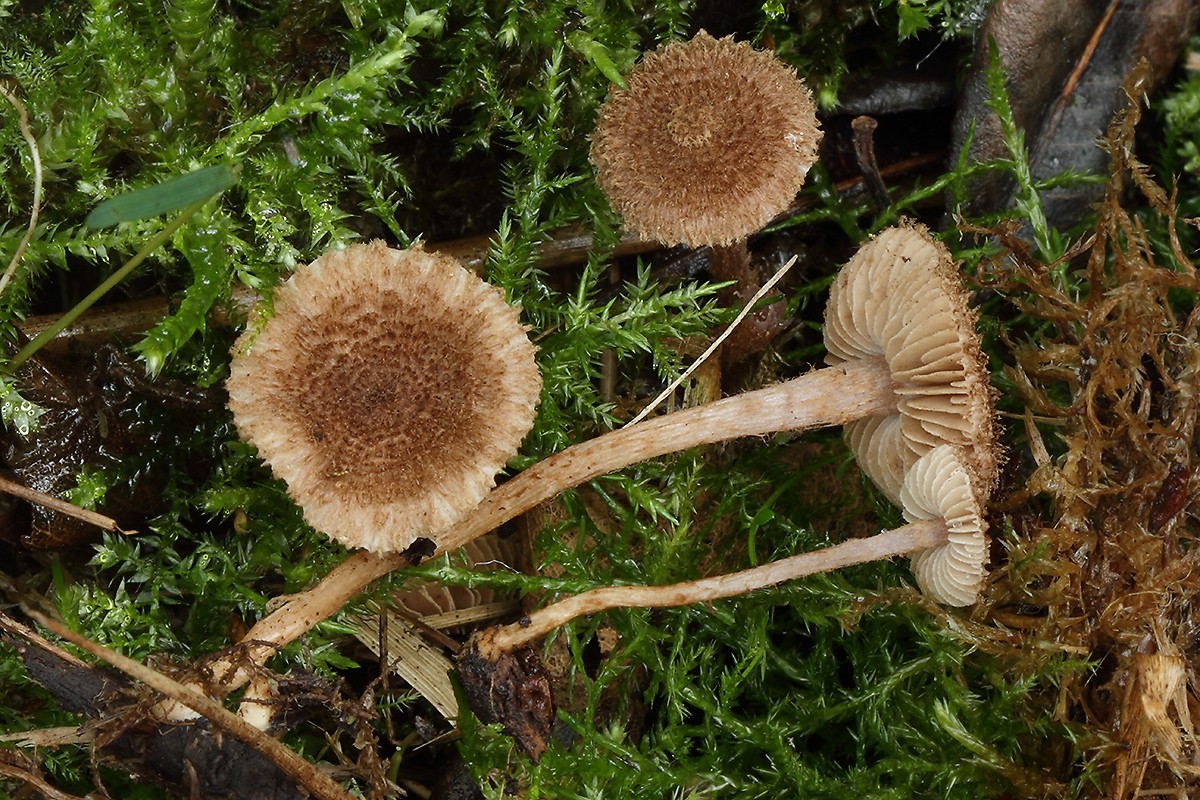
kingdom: Fungi
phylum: Basidiomycota
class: Agaricomycetes
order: Agaricales
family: Inocybaceae
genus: Inocybe
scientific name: Inocybe squarrosa
